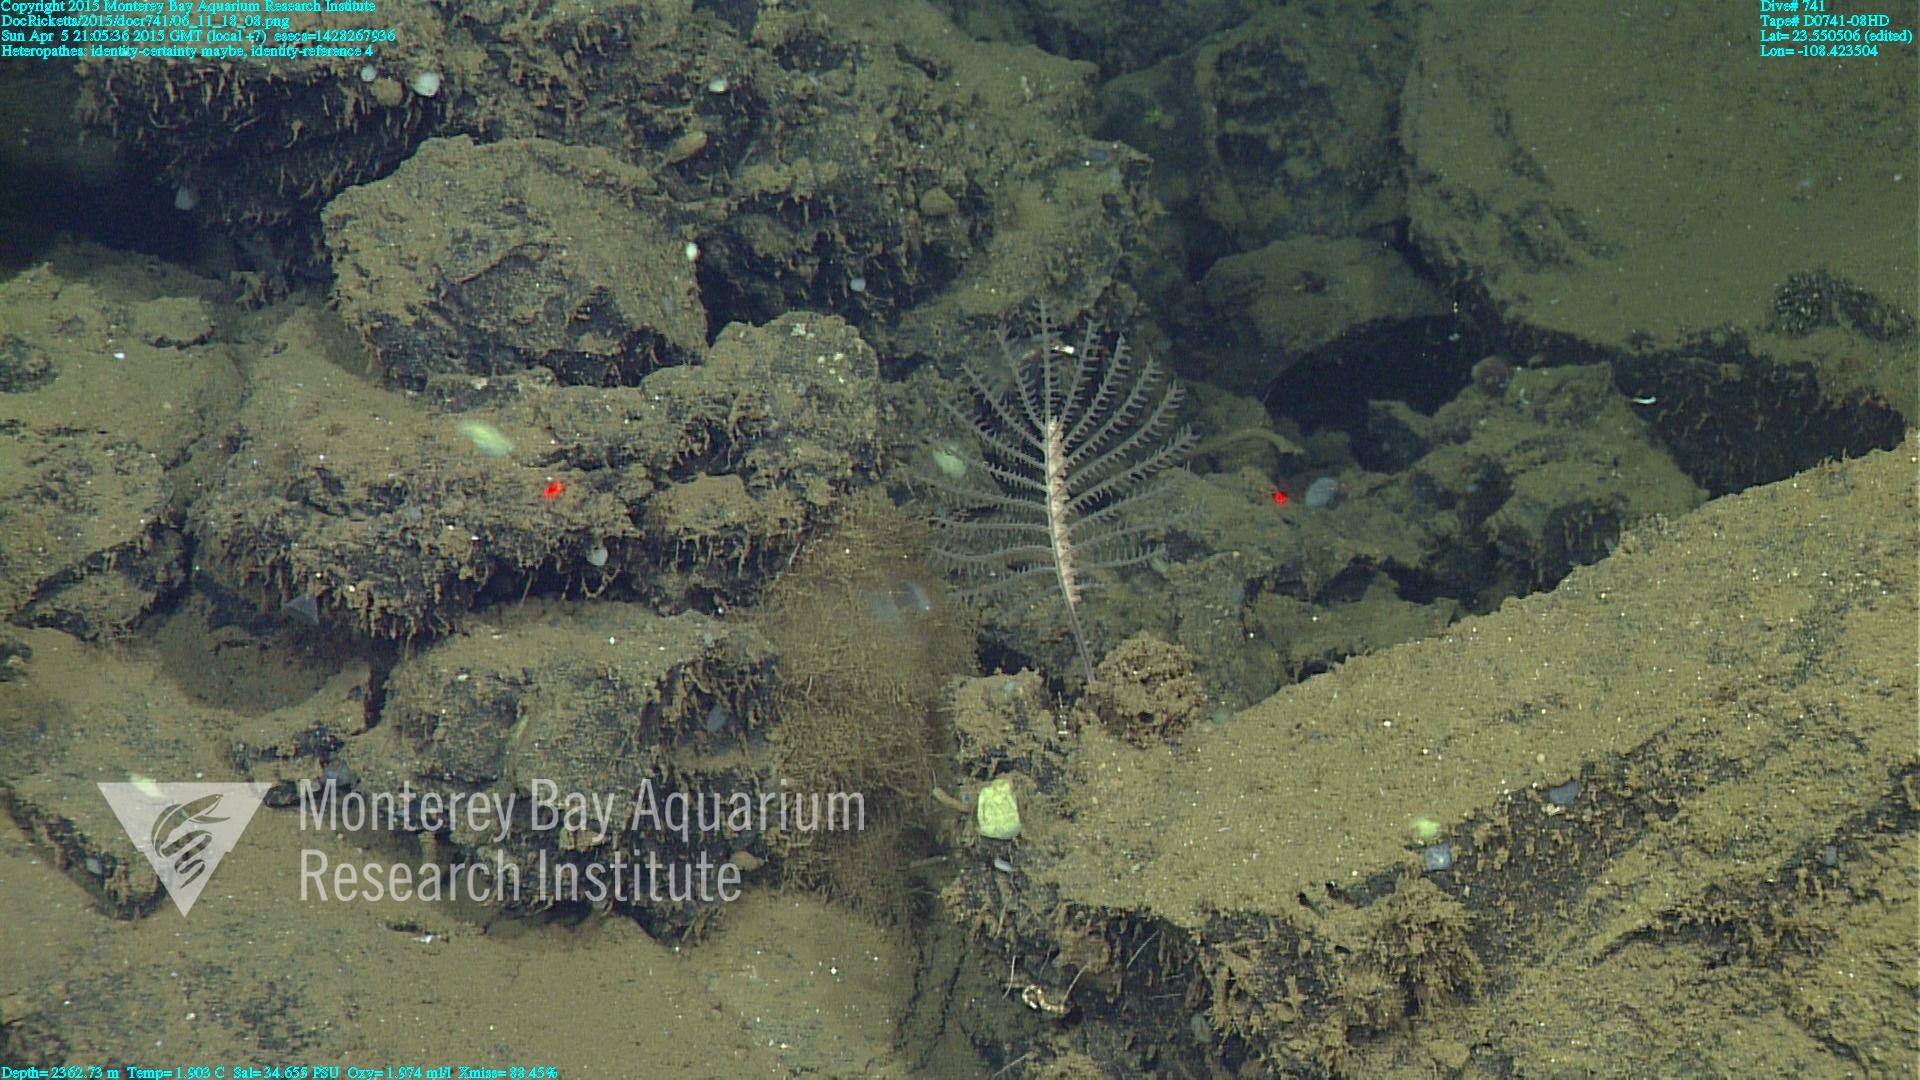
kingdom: Animalia
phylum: Cnidaria
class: Anthozoa
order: Antipatharia
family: Cladopathidae
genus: Heteropathes
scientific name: Heteropathes
